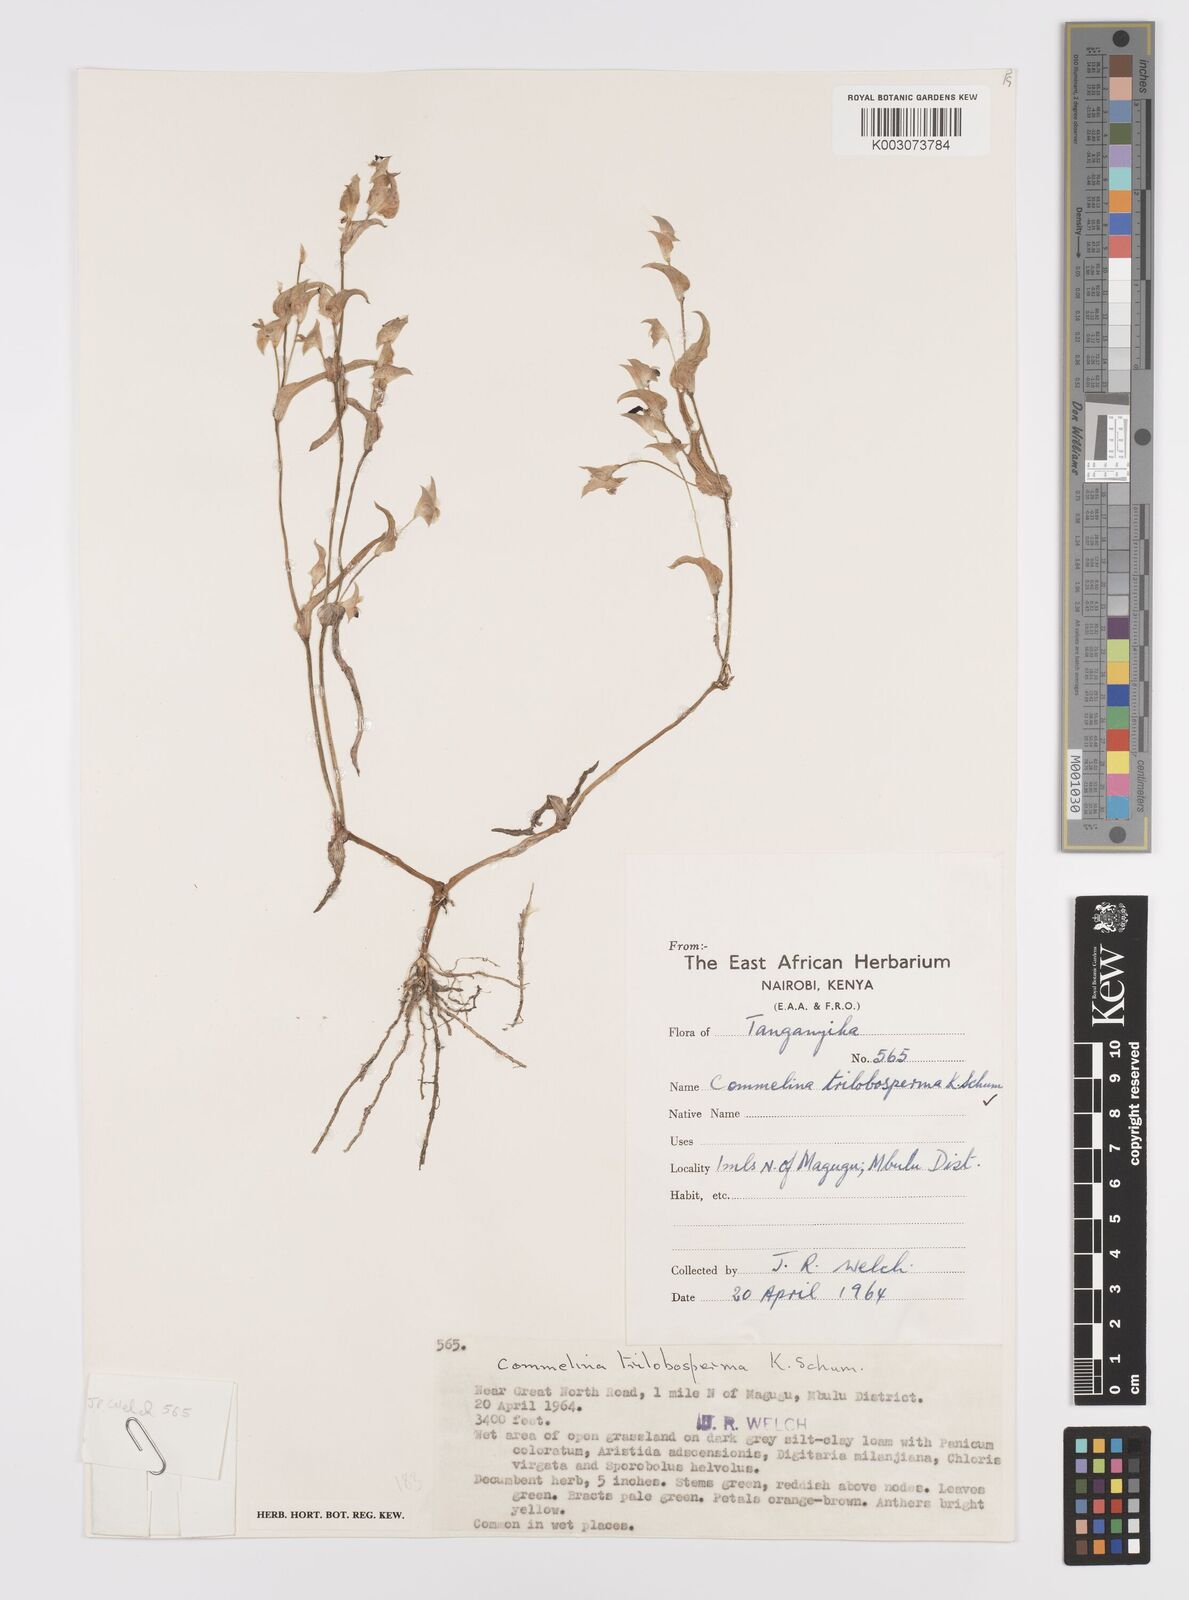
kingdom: Plantae
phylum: Tracheophyta
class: Liliopsida
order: Commelinales
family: Commelinaceae
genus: Commelina
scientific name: Commelina trilobosperma
